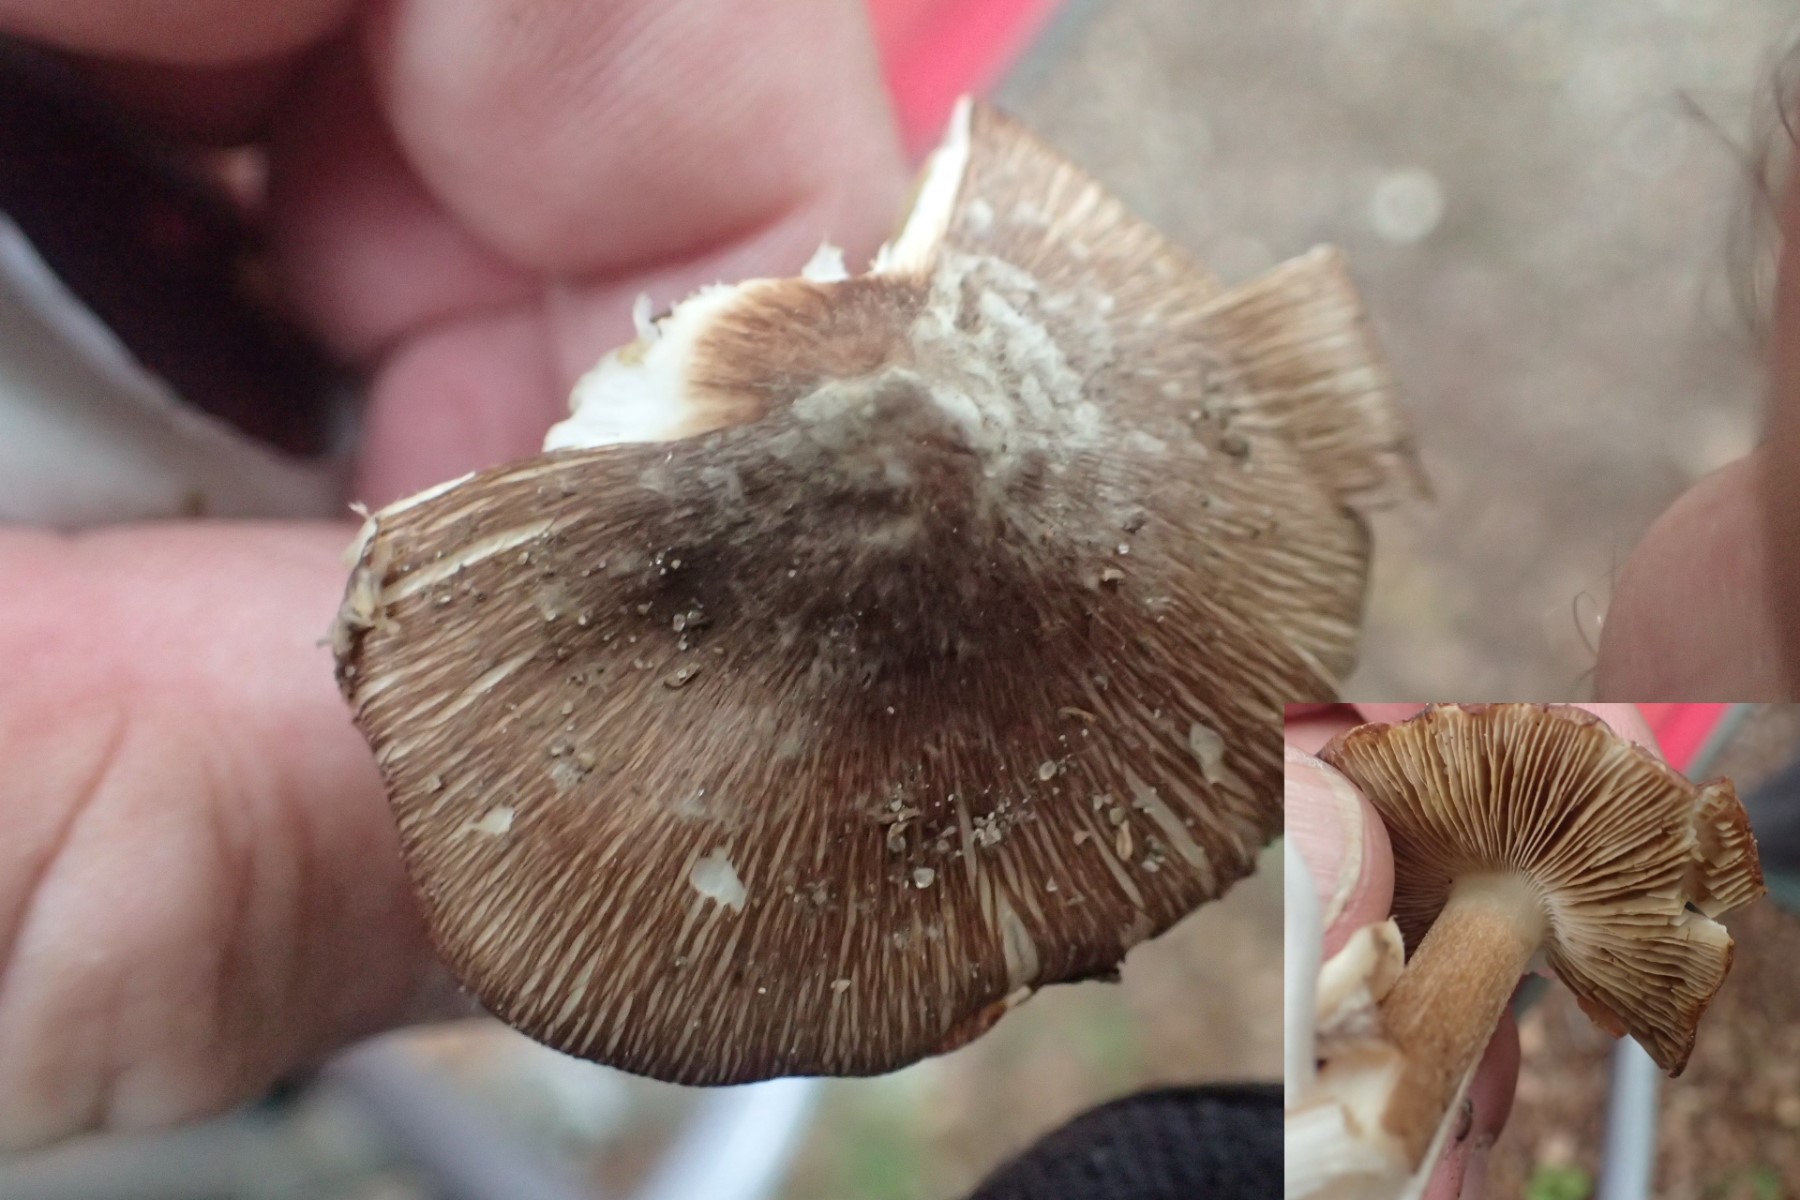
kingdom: Fungi
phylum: Basidiomycota
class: Agaricomycetes
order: Agaricales
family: Inocybaceae
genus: Inosperma
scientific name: Inosperma
